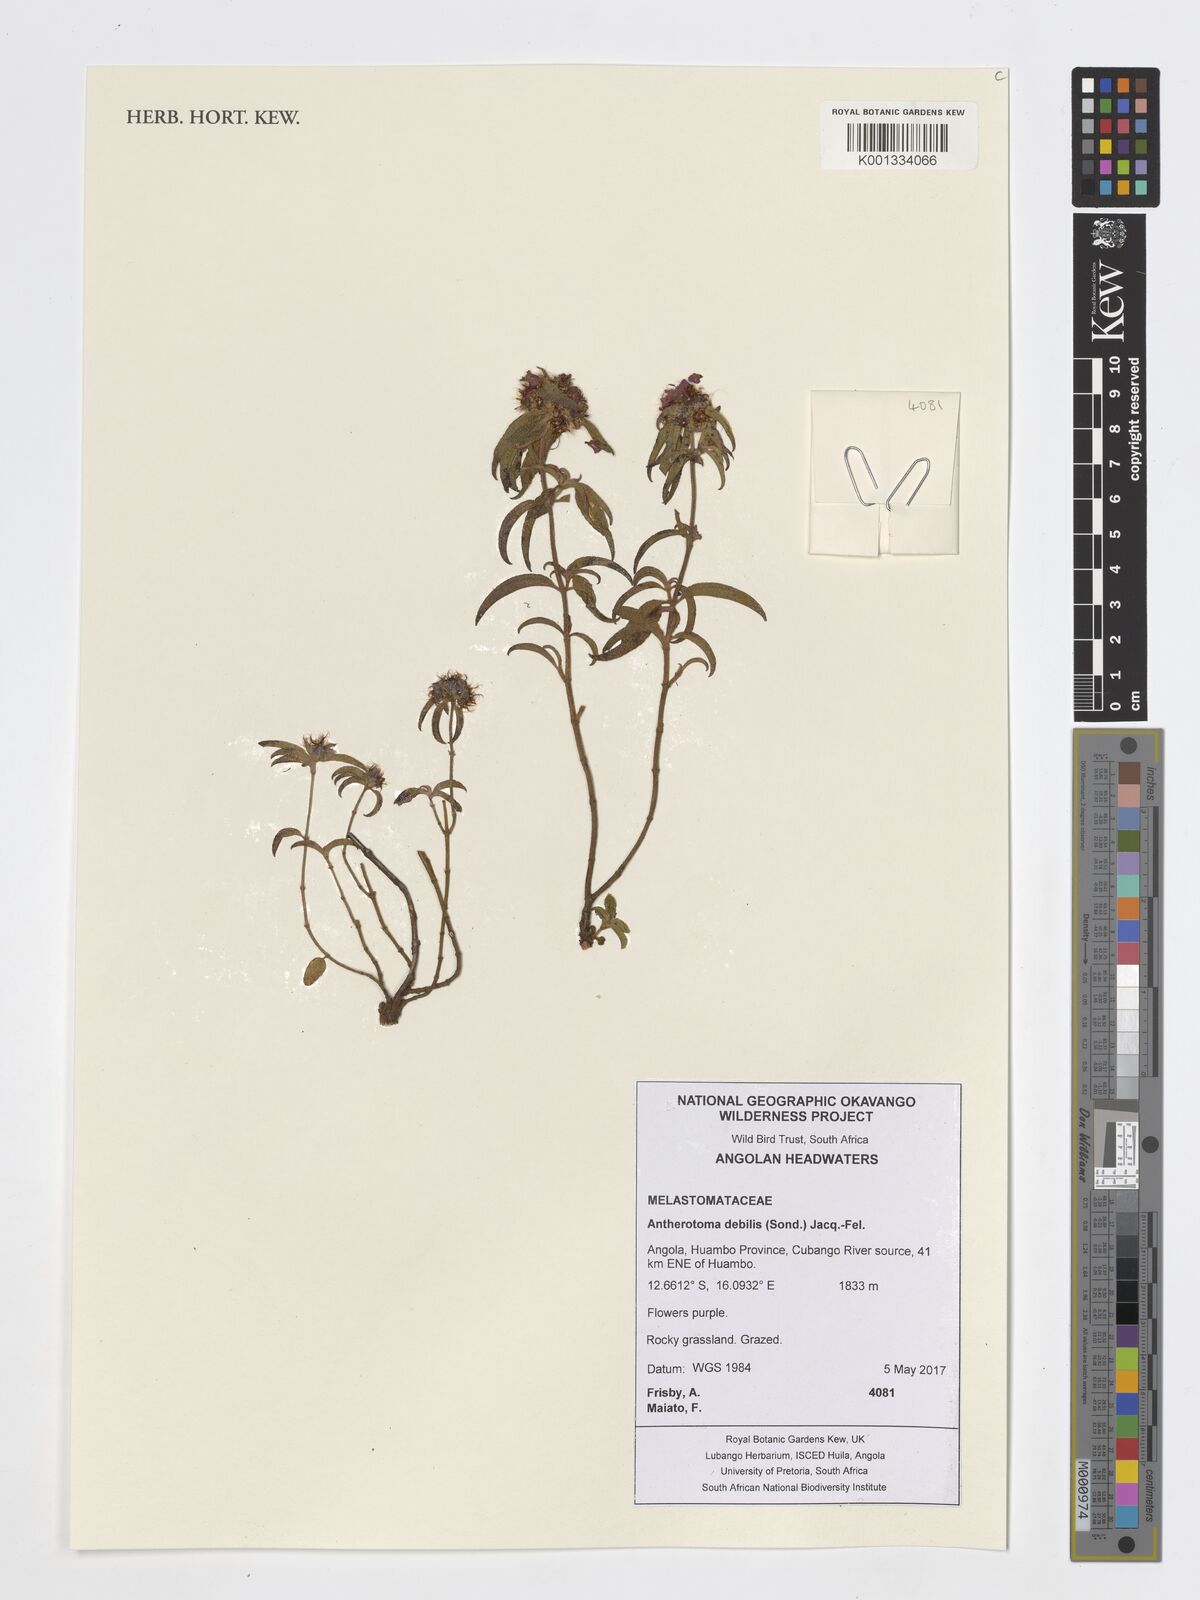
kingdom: Plantae
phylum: Tracheophyta
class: Magnoliopsida
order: Myrtales
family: Melastomataceae
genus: Antherotoma
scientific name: Antherotoma debilis
